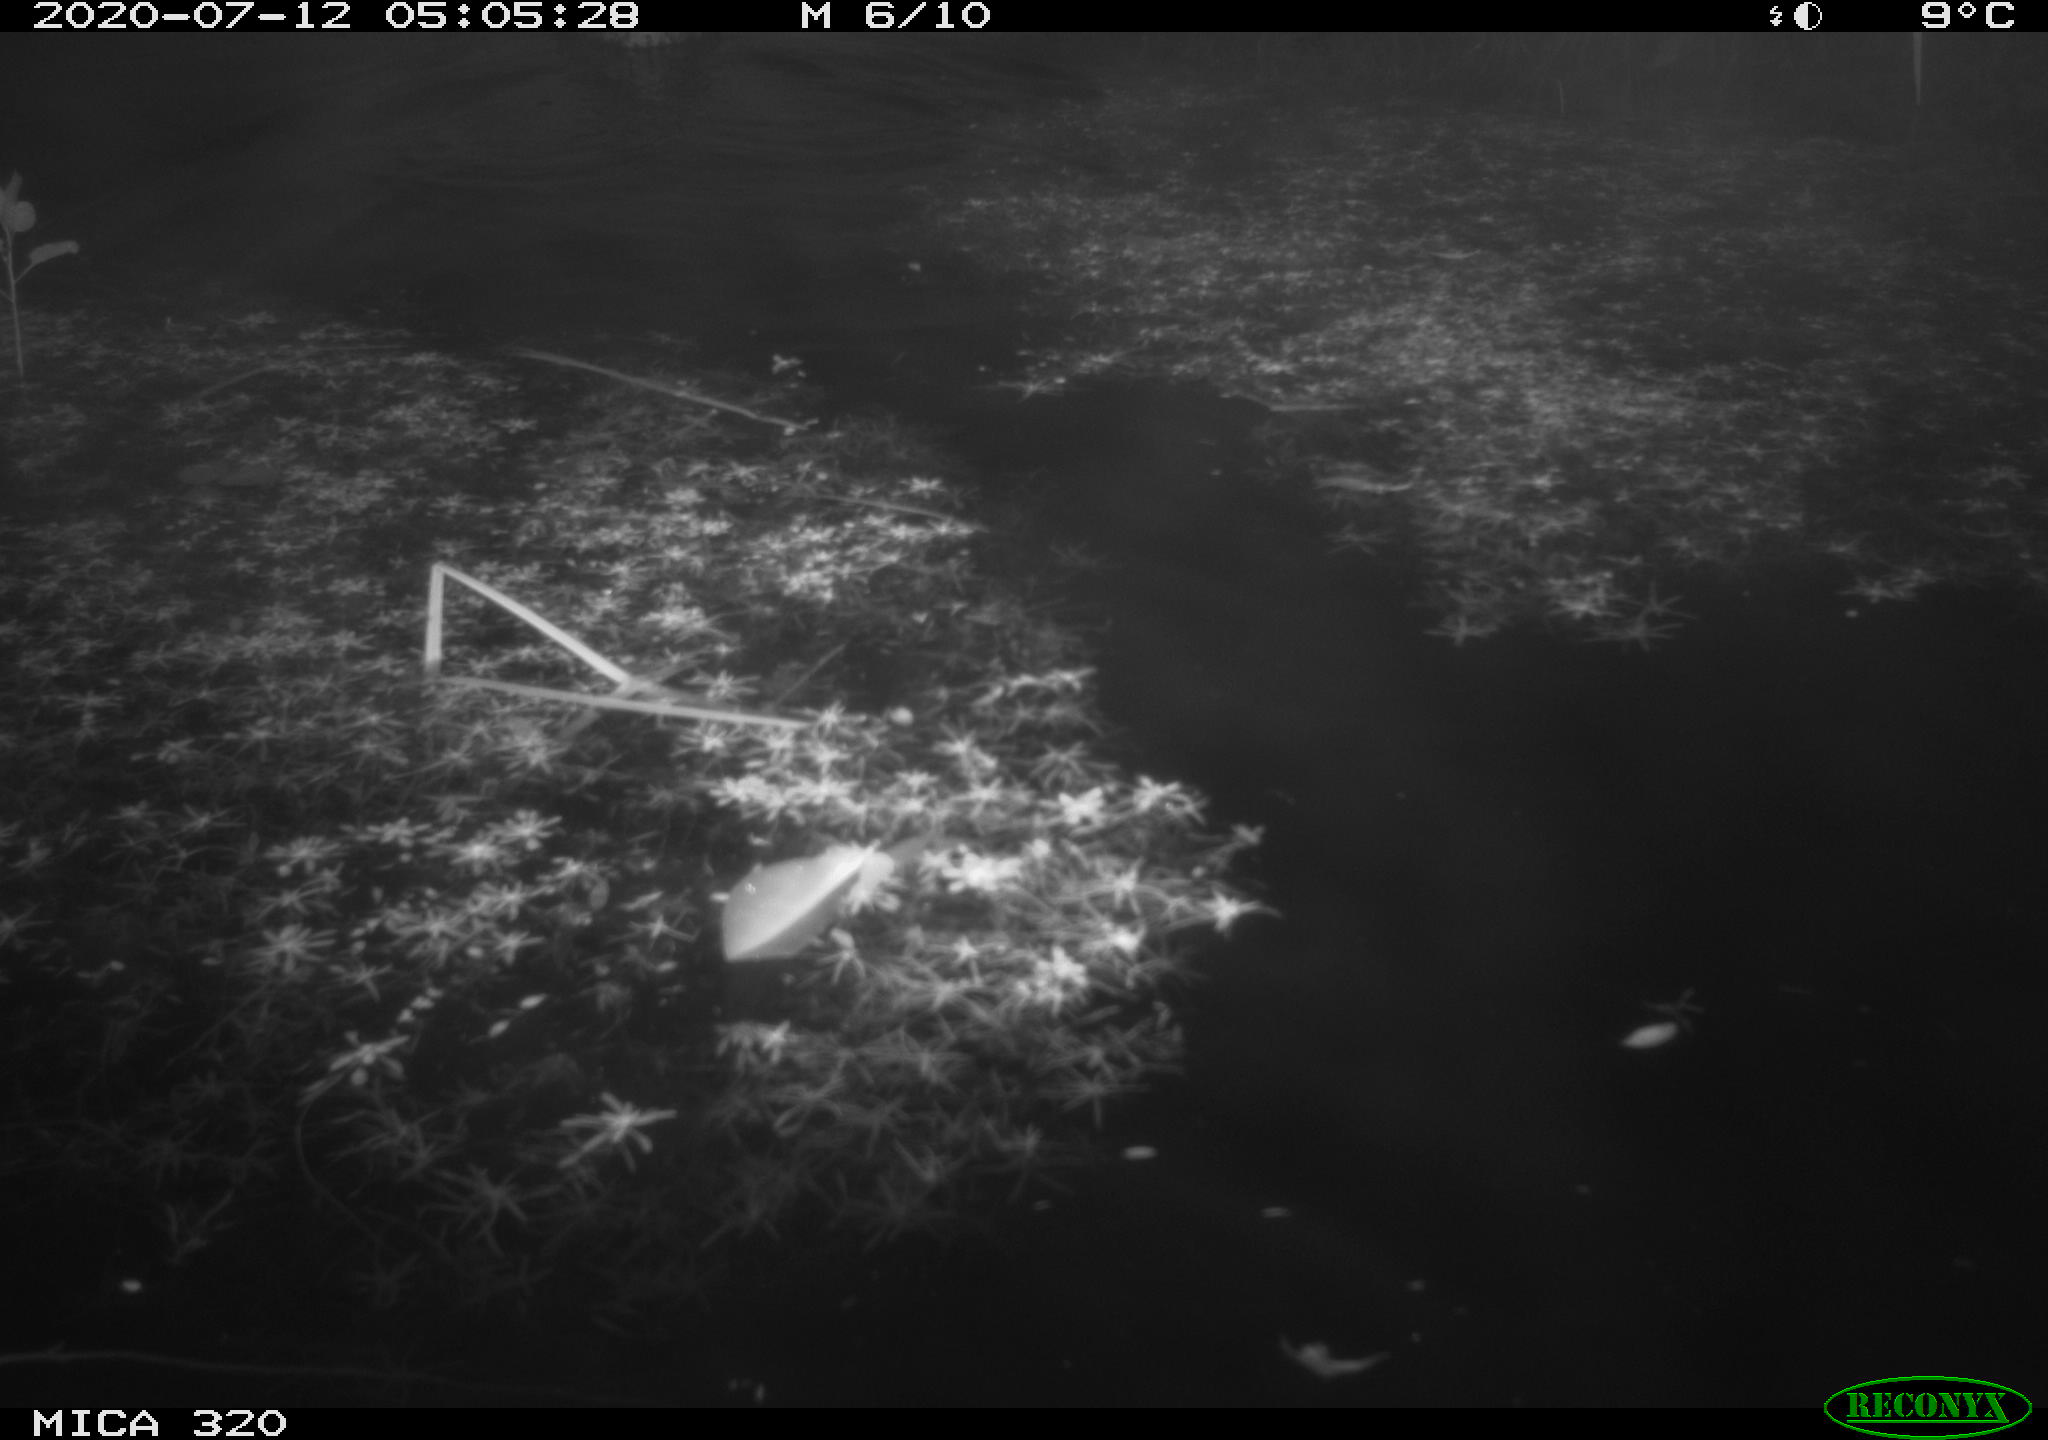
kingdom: Animalia
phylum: Chordata
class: Aves
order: Anseriformes
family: Anatidae
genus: Anas
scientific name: Anas platyrhynchos
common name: Mallard
